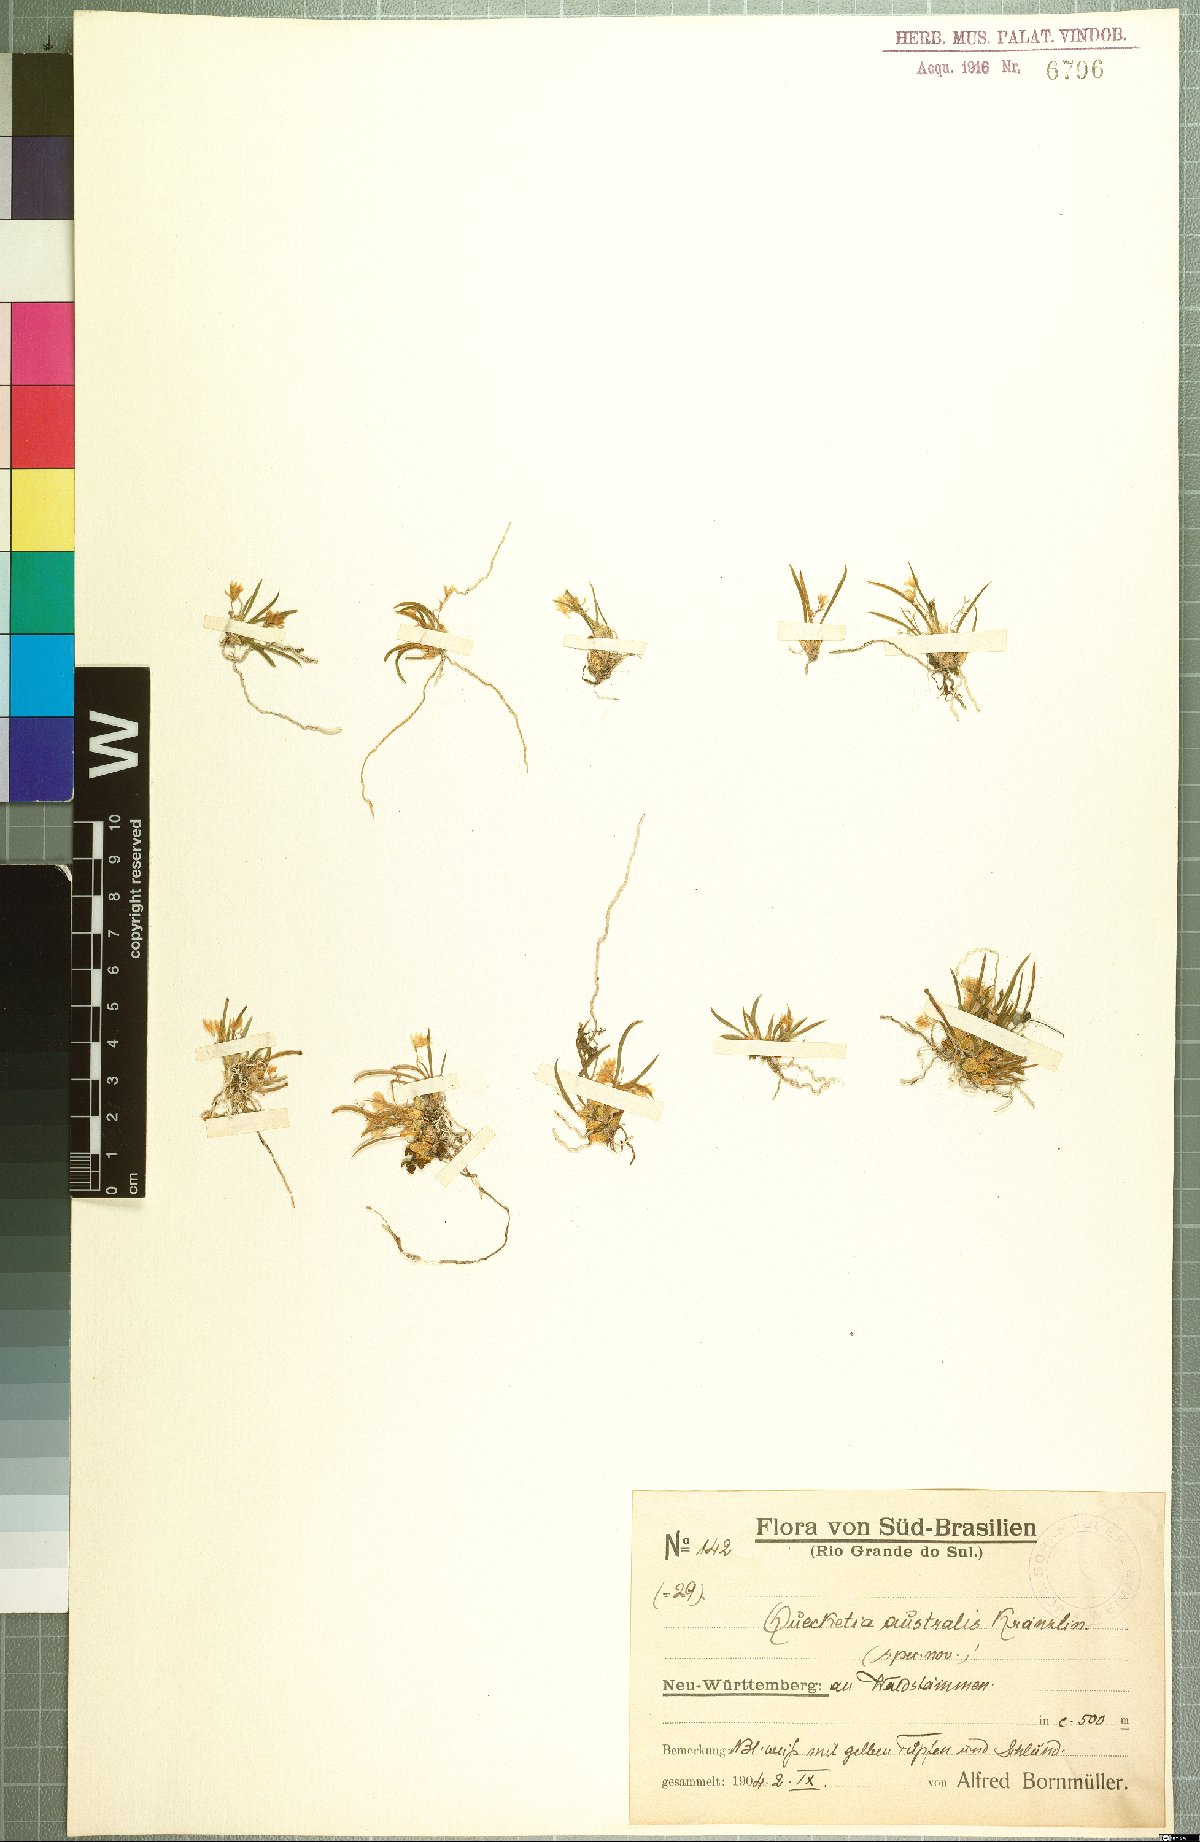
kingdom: Plantae
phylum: Tracheophyta
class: Liliopsida
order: Asparagales
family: Orchidaceae
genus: Capanemia
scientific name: Capanemia micromera
